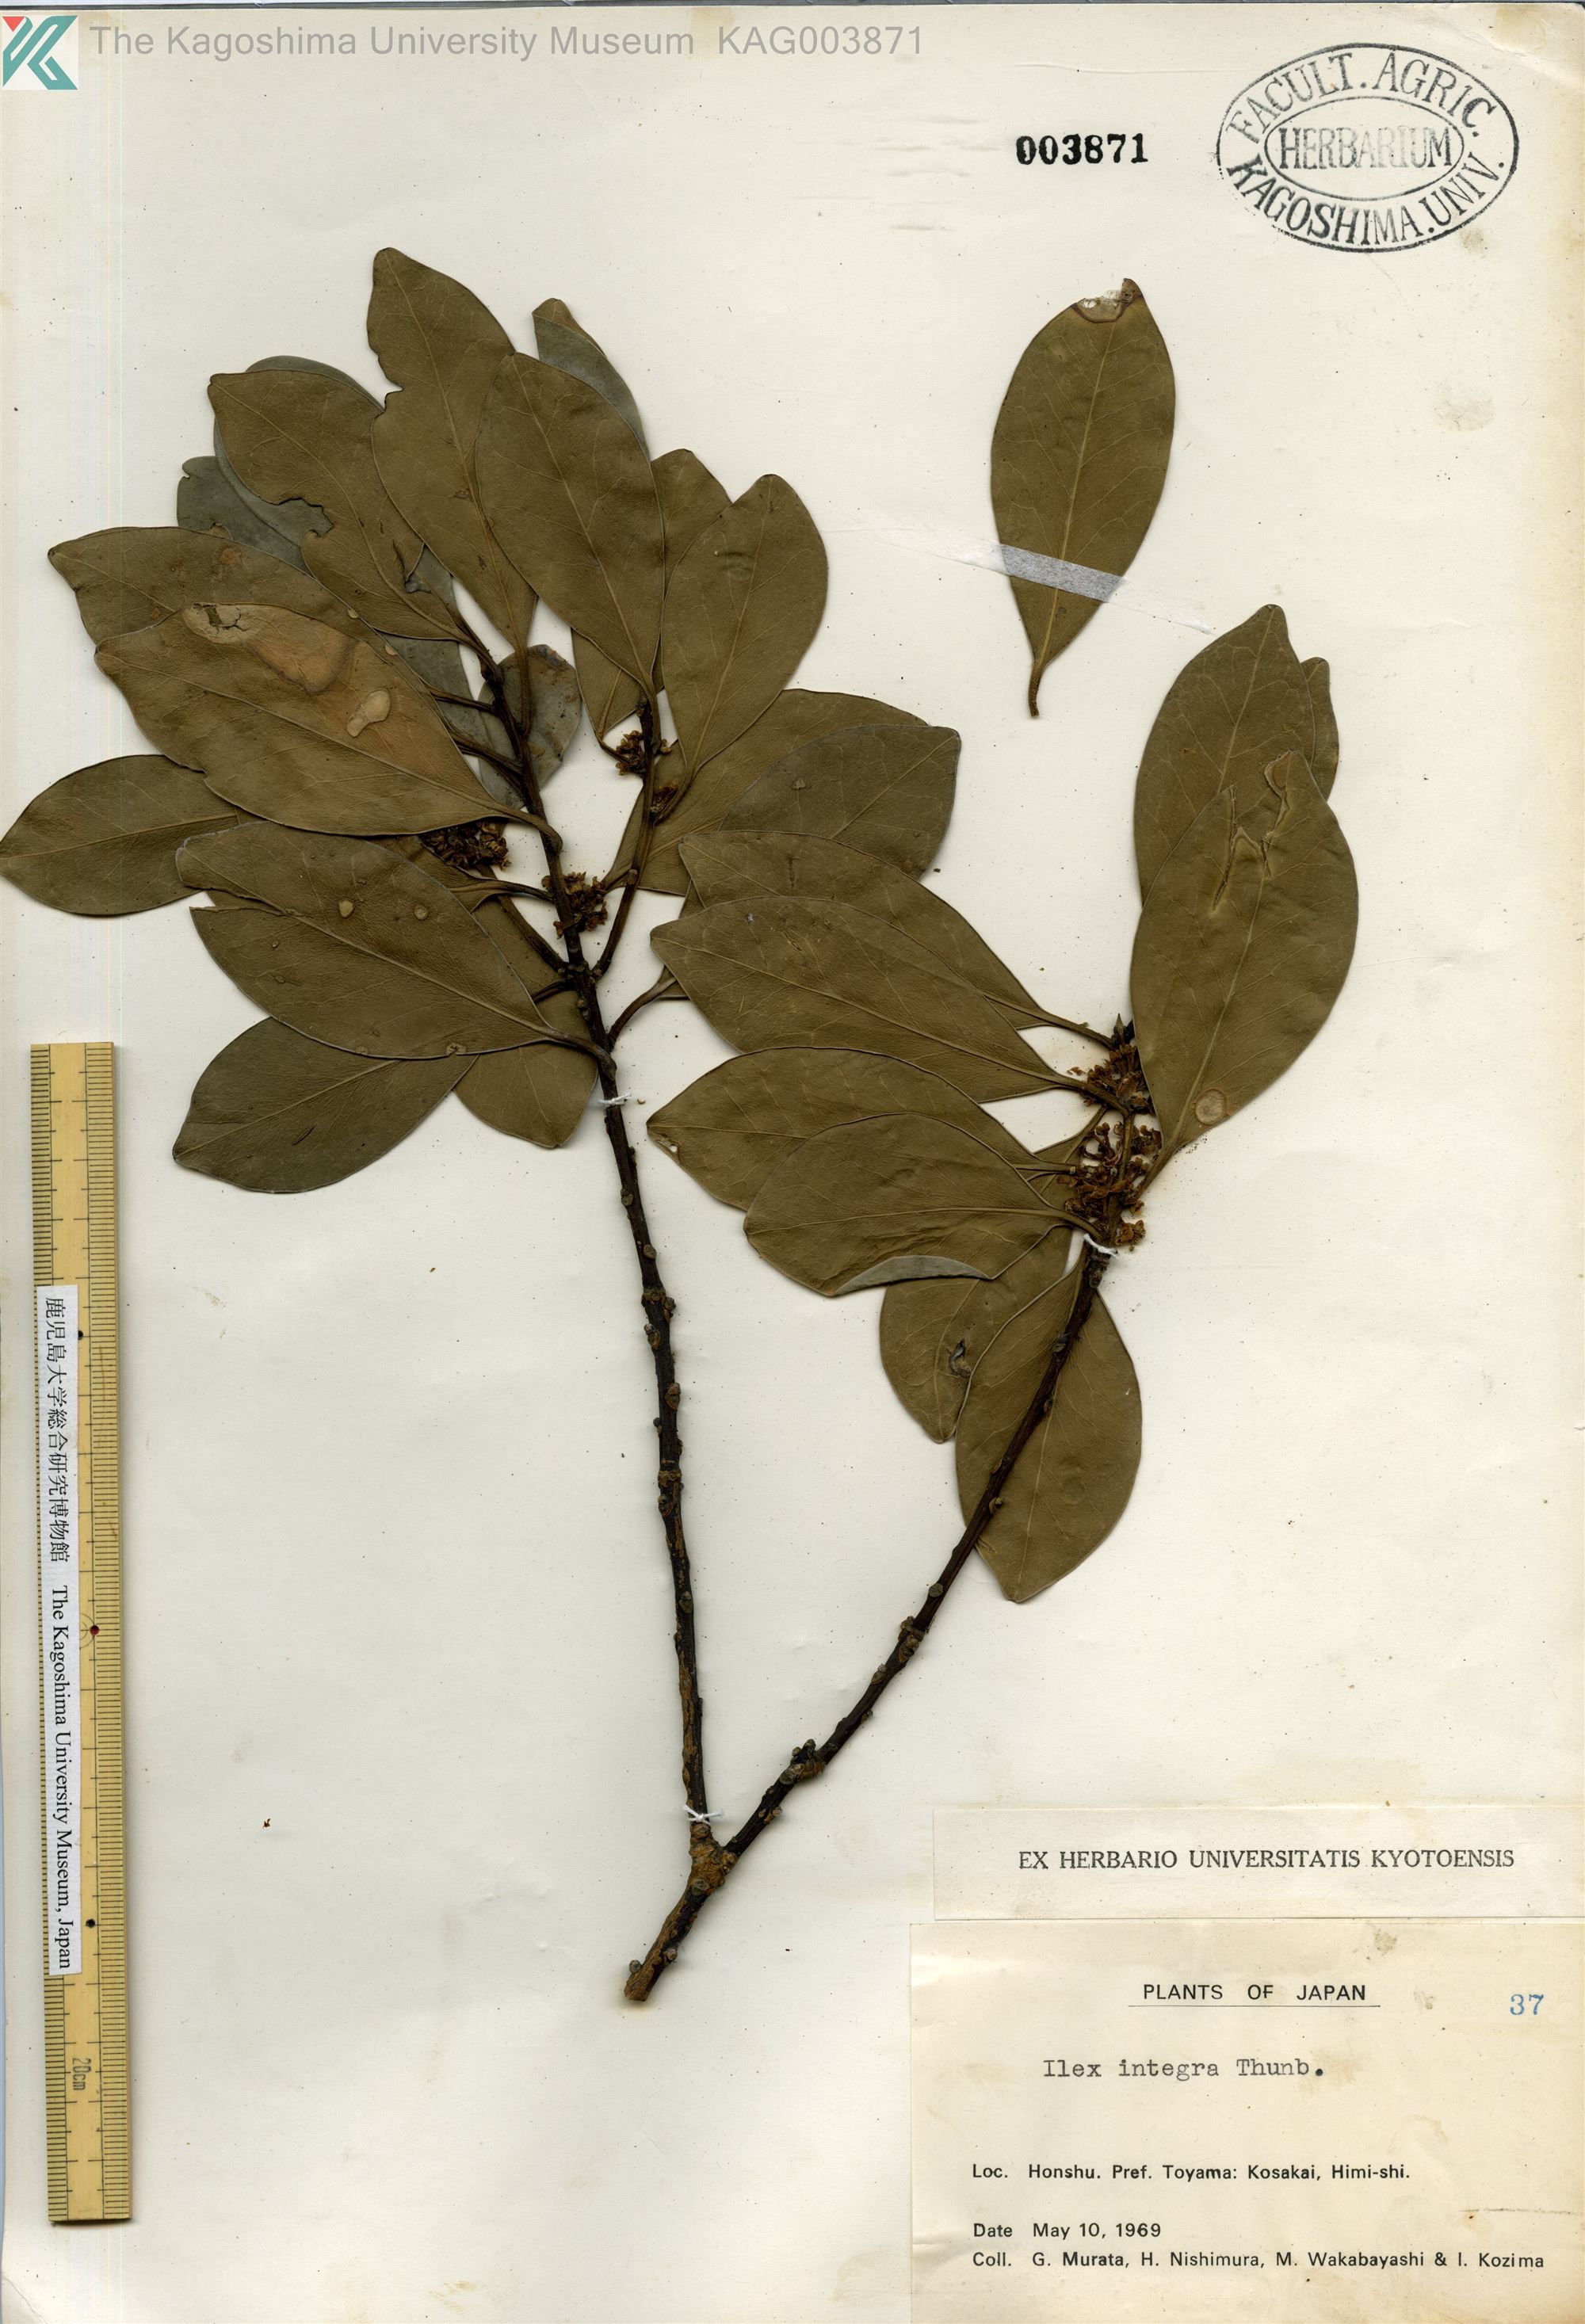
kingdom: Plantae
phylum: Tracheophyta
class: Magnoliopsida
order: Aquifoliales
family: Aquifoliaceae
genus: Ilex
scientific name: Ilex integra
